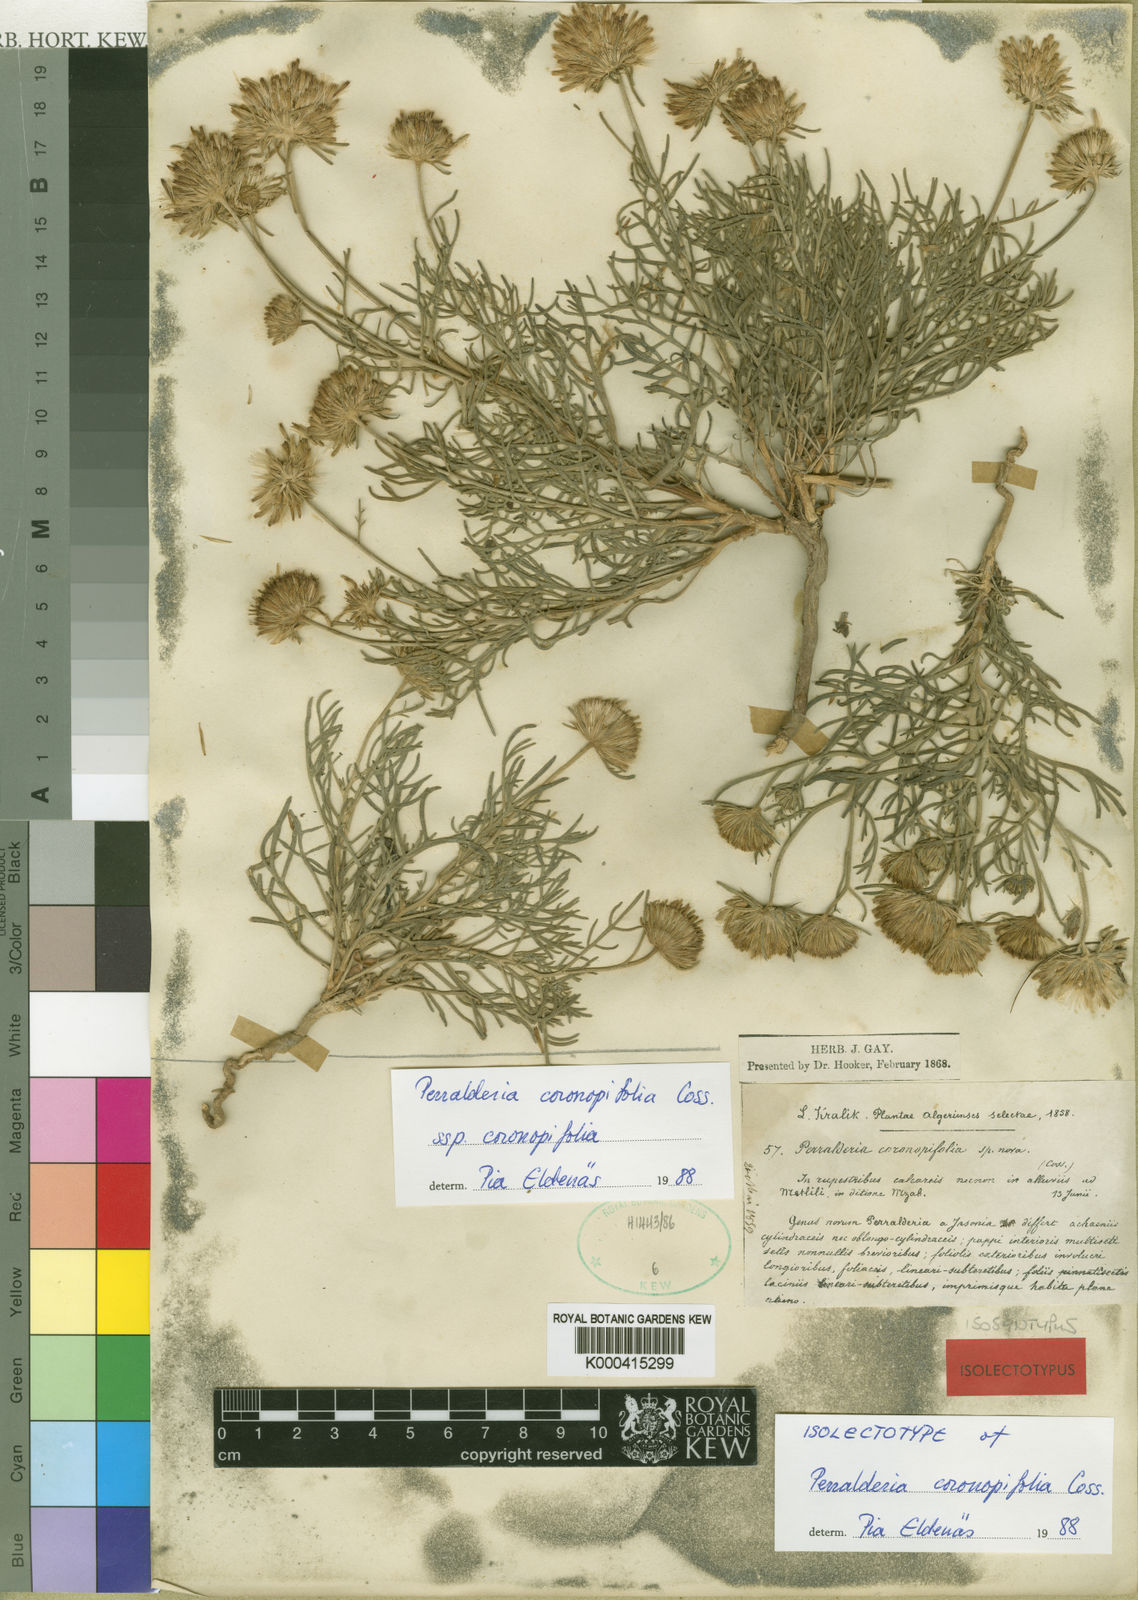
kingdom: Plantae
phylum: Tracheophyta
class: Magnoliopsida
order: Asterales
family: Asteraceae
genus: Perralderia
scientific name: Perralderia coronopifolia
